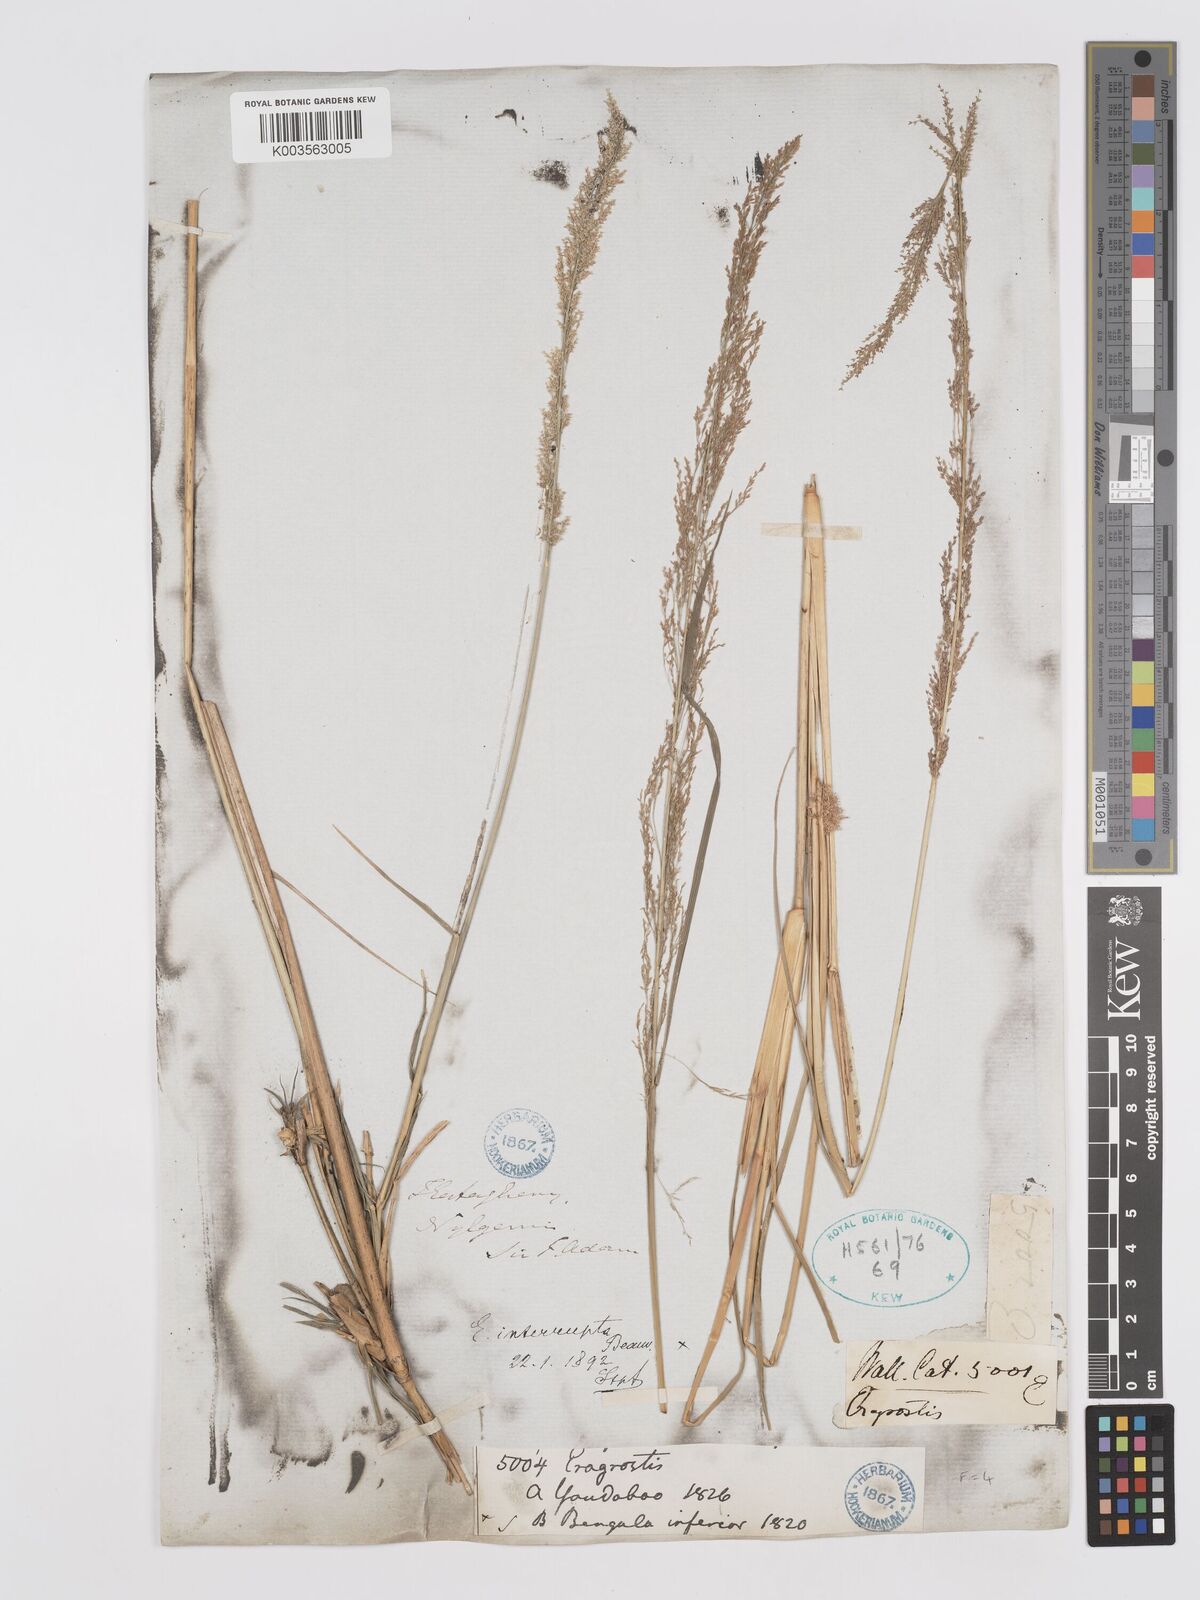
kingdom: Plantae
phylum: Tracheophyta
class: Liliopsida
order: Poales
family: Poaceae
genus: Eragrostis
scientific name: Eragrostis japonica
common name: Pond lovegrass
